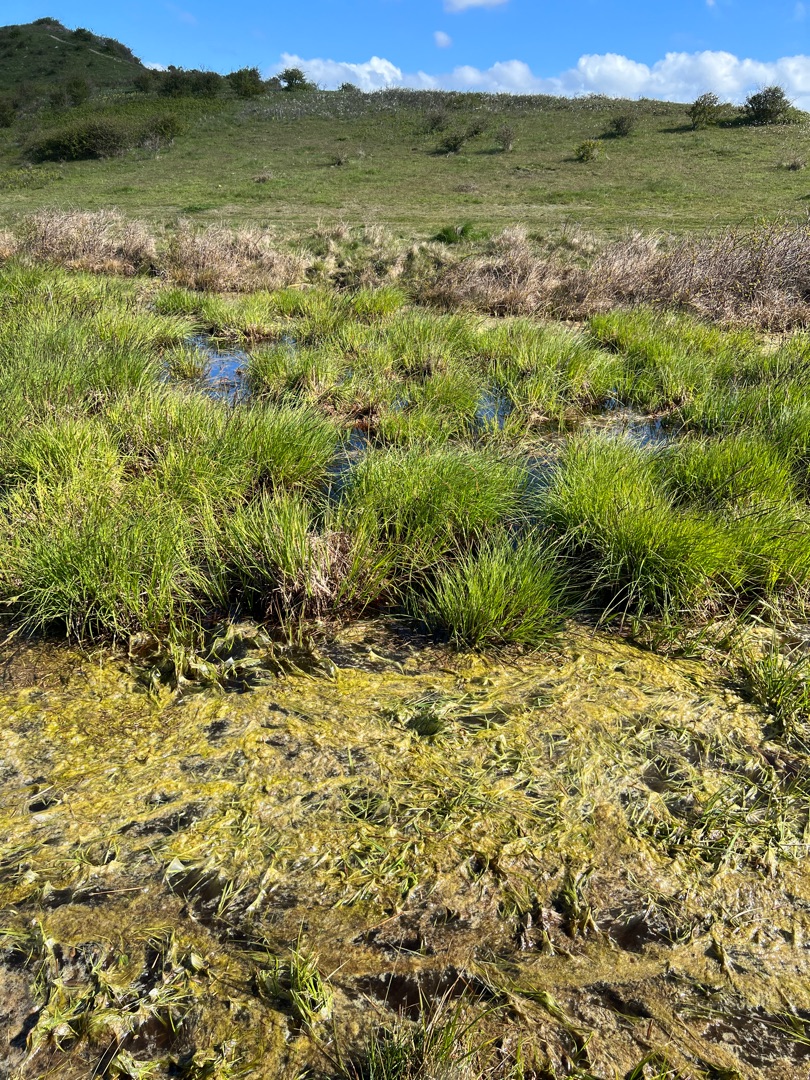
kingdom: Plantae
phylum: Tracheophyta
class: Liliopsida
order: Poales
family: Cyperaceae
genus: Carex
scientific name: Carex elata
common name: Stiv star
